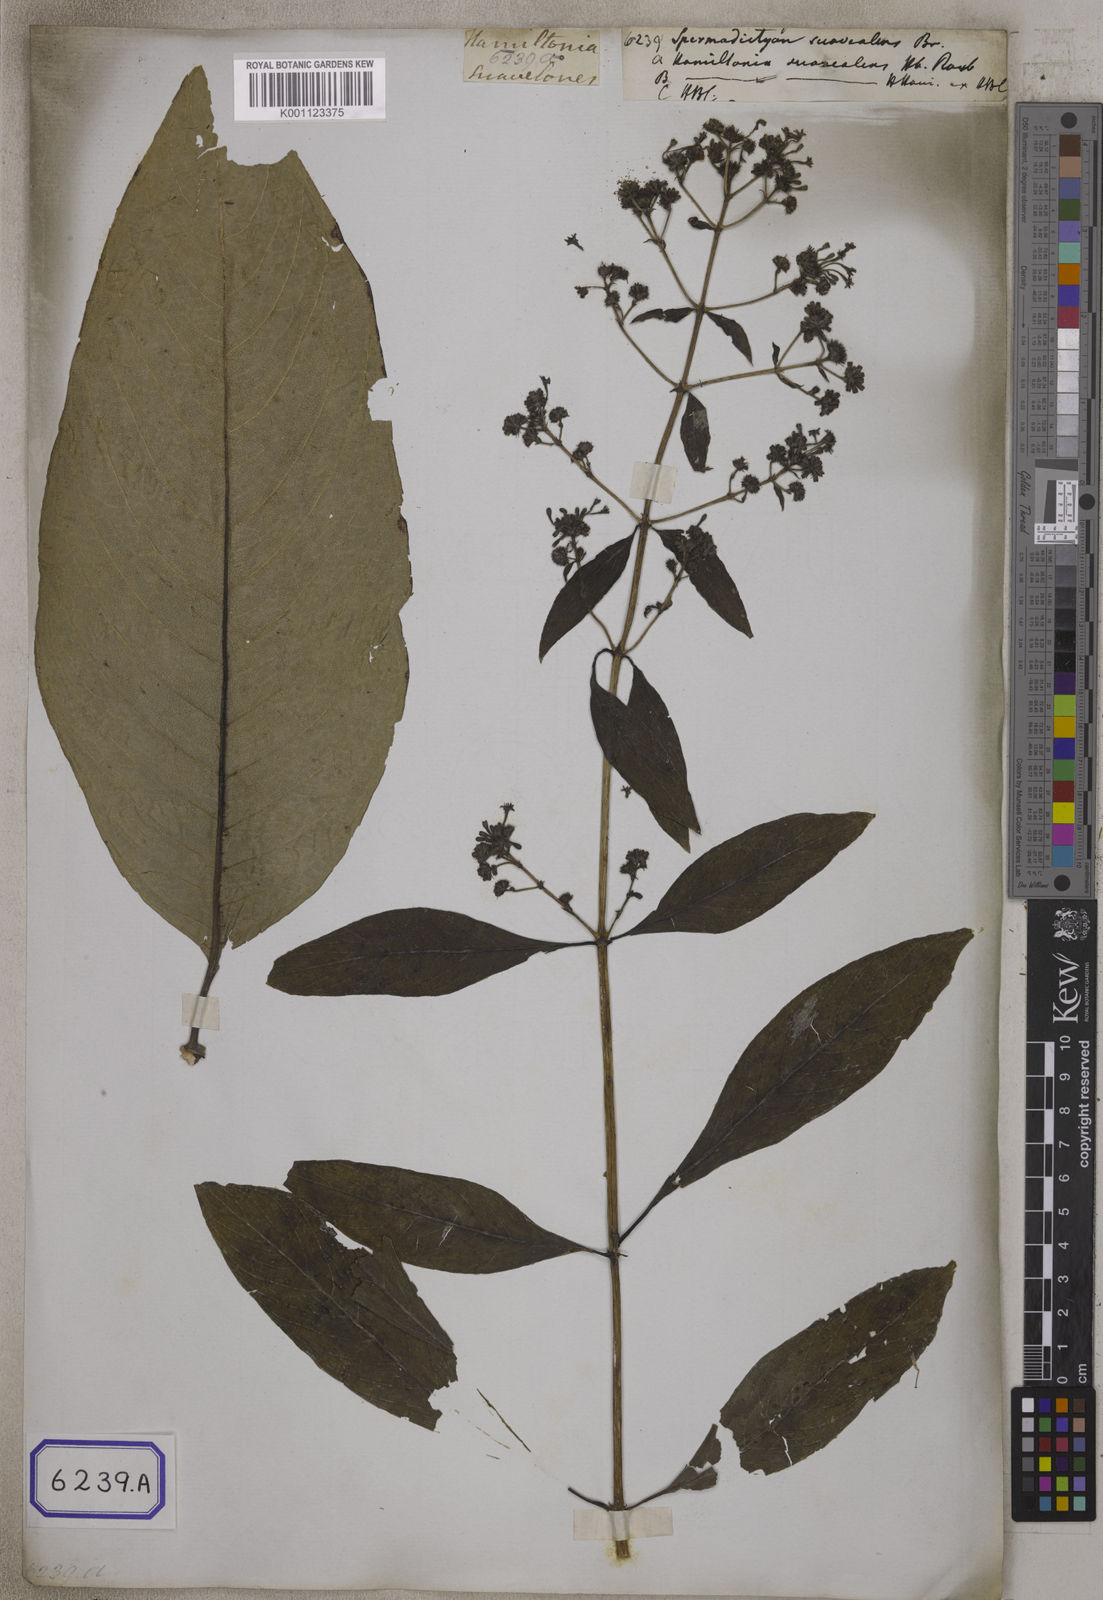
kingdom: Plantae
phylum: Tracheophyta
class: Magnoliopsida
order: Gentianales
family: Rubiaceae
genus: Spermadictyon
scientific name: Spermadictyon suaveolens
